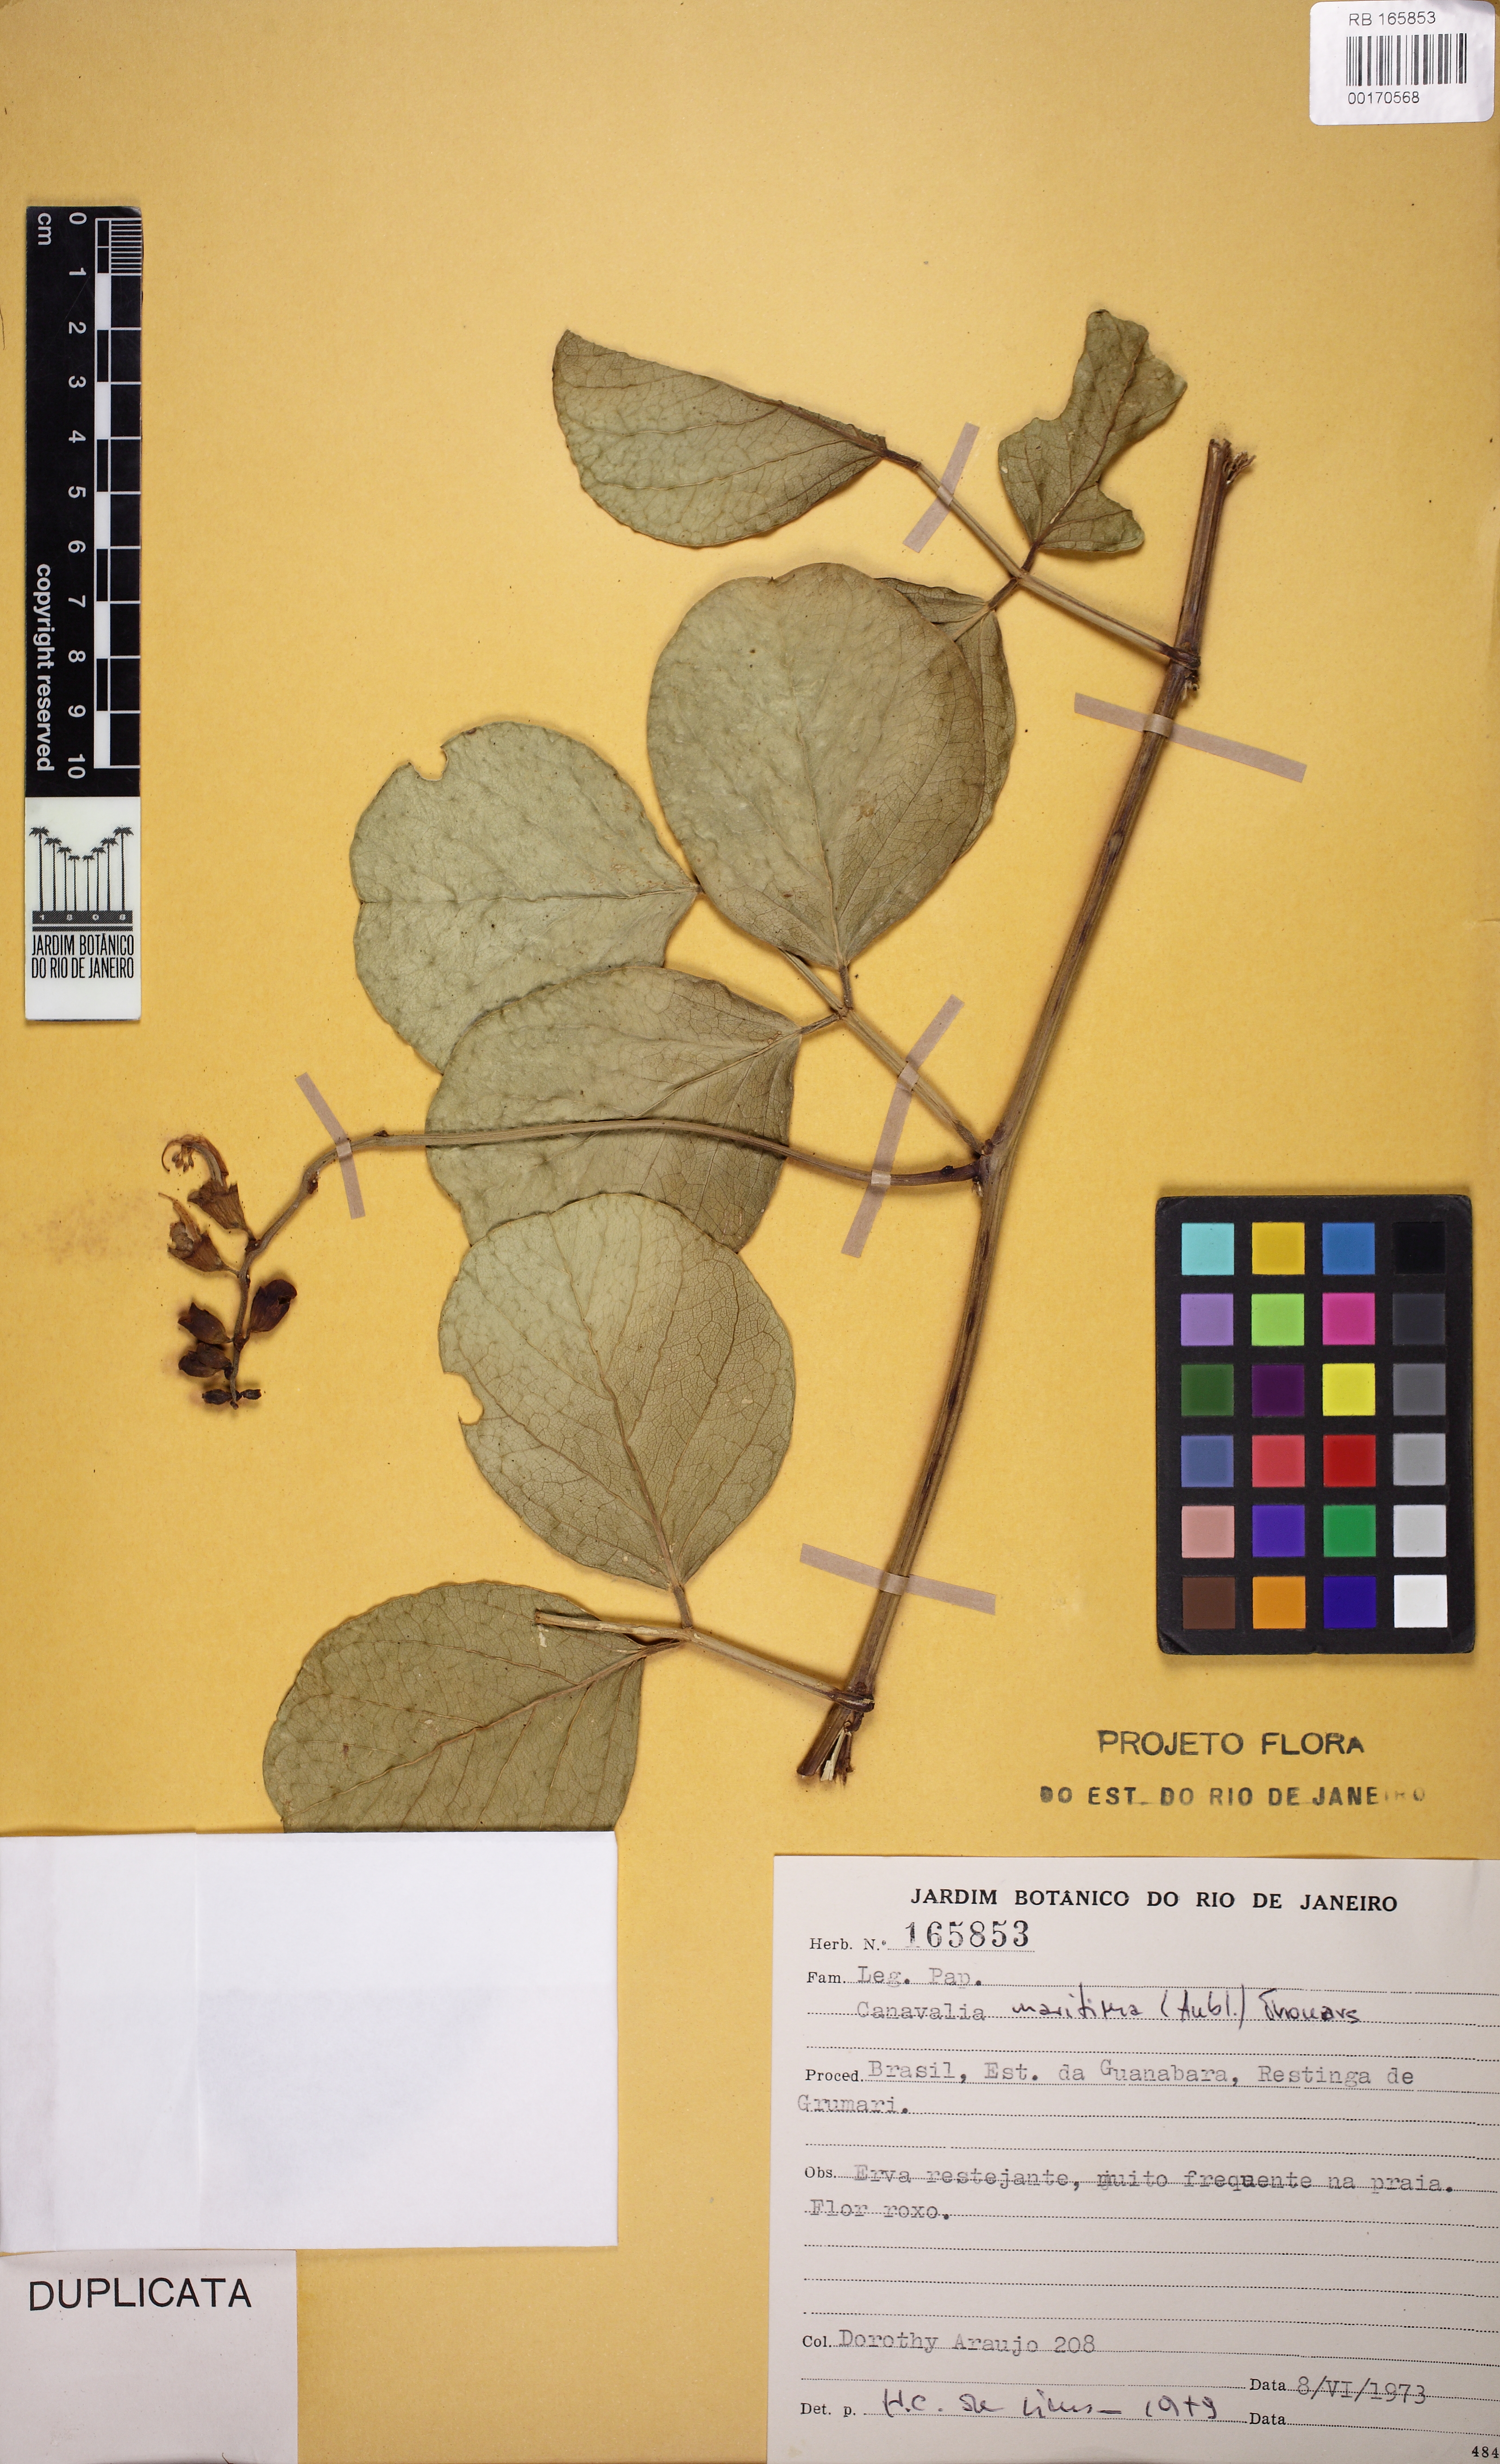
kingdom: Plantae
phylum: Tracheophyta
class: Magnoliopsida
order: Fabales
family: Fabaceae
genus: Canavalia
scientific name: Canavalia rosea
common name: Beach-bean
